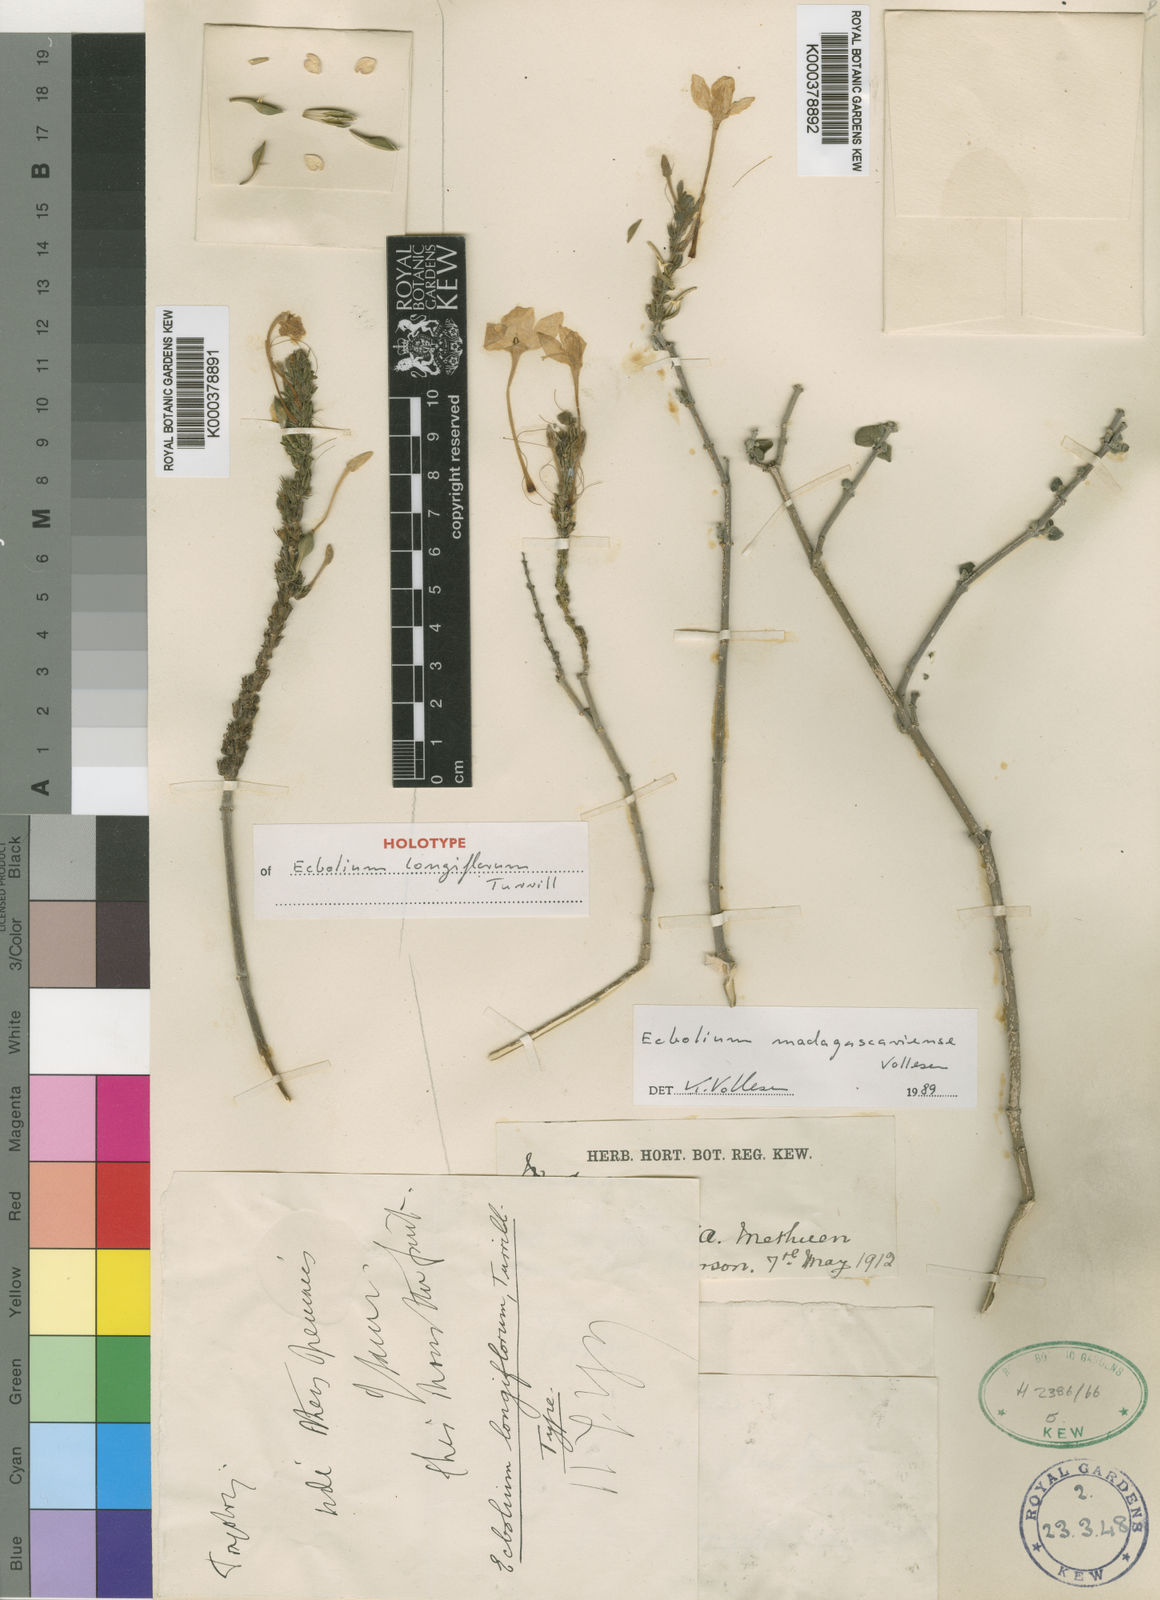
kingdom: Plantae
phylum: Tracheophyta
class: Magnoliopsida
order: Lamiales
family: Acanthaceae
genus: Ecbolium
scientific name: Ecbolium madagascariense
